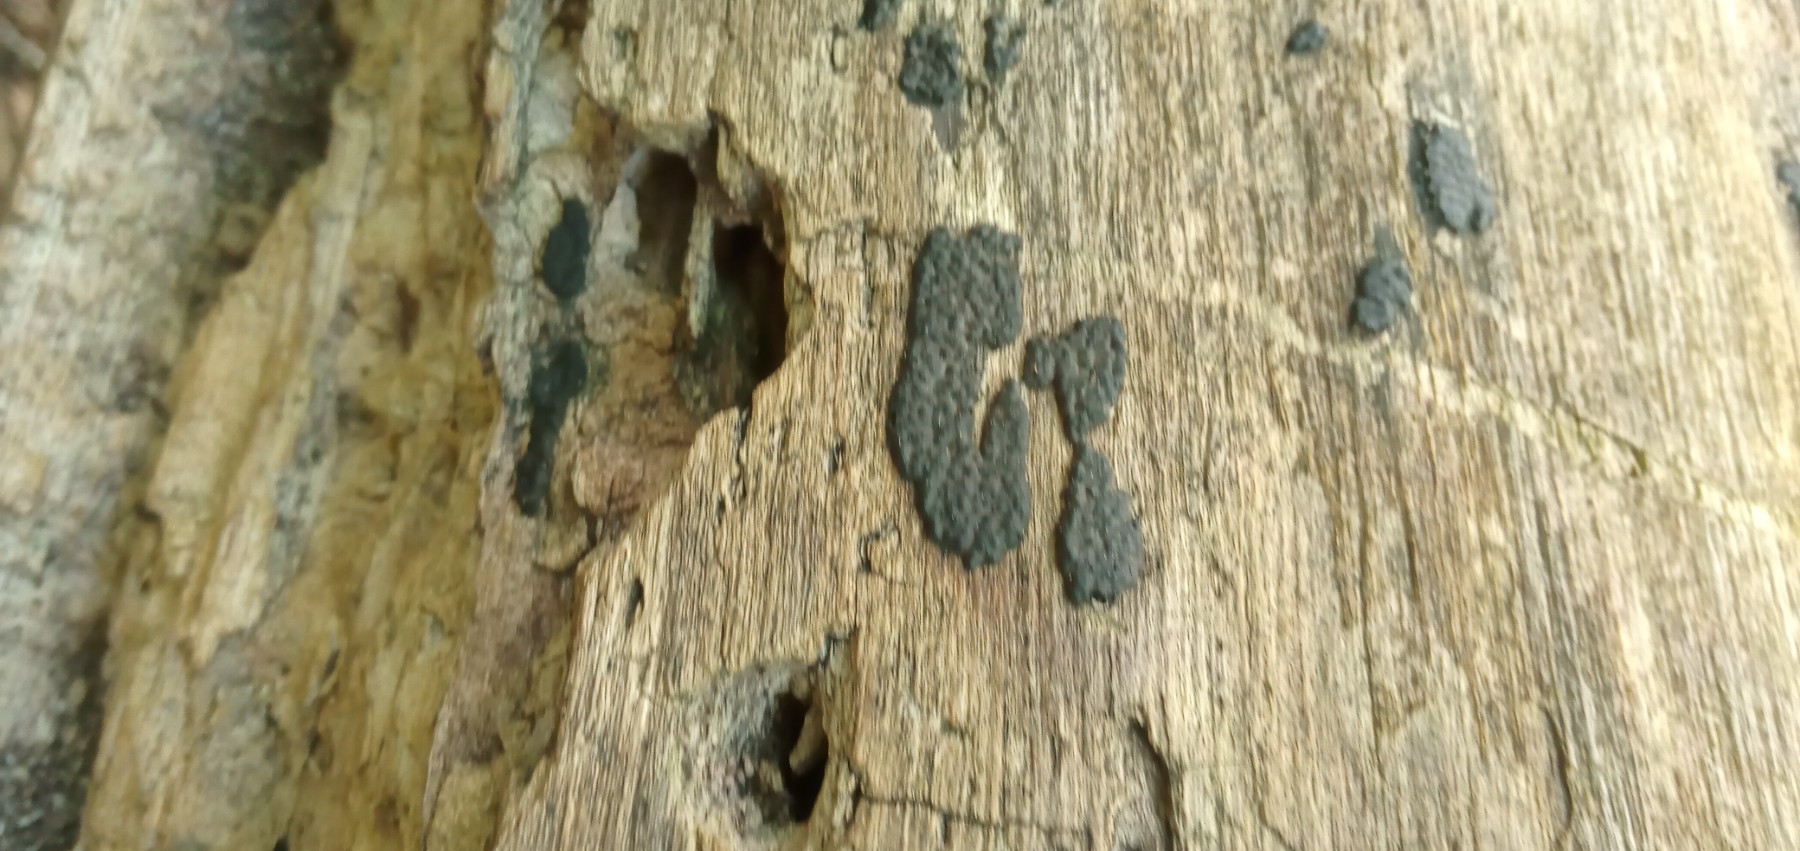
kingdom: Fungi
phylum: Ascomycota
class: Sordariomycetes
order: Xylariales
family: Xylariaceae
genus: Nemania
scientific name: Nemania
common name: kuldyne
